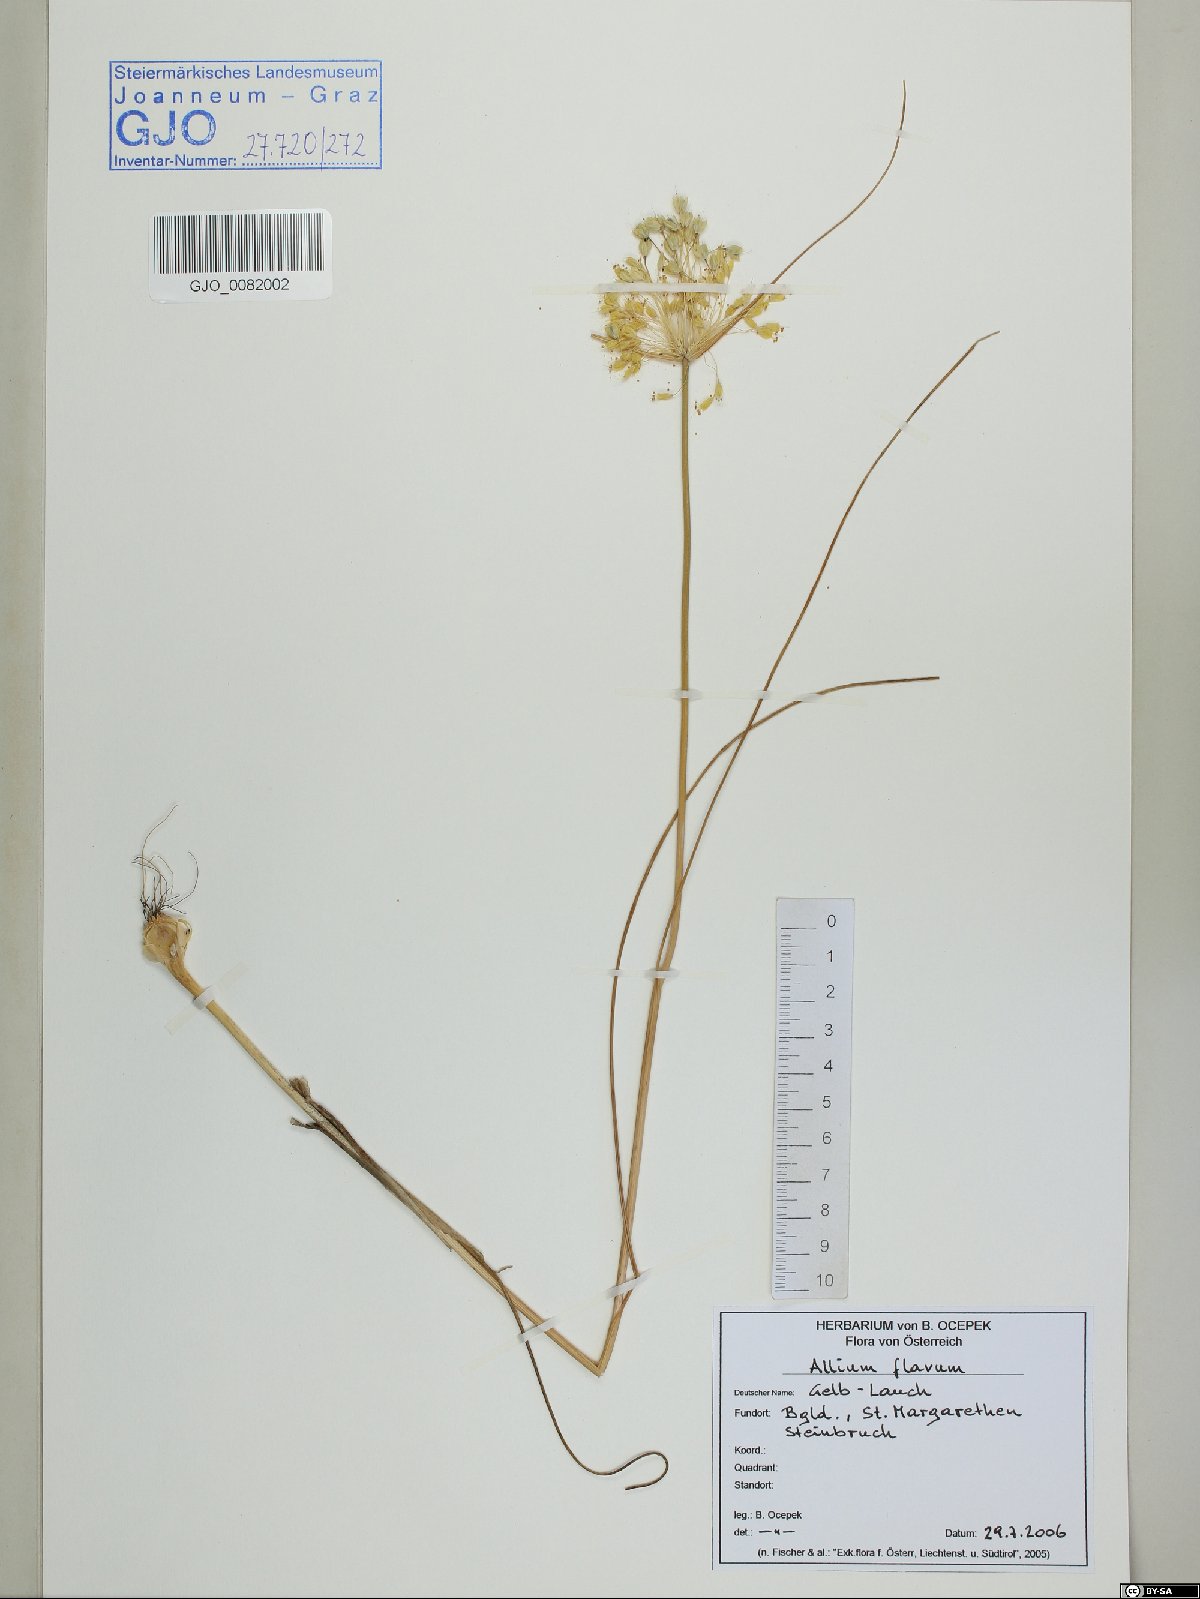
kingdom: Plantae
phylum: Tracheophyta
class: Liliopsida
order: Asparagales
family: Amaryllidaceae
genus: Allium
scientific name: Allium flavum
